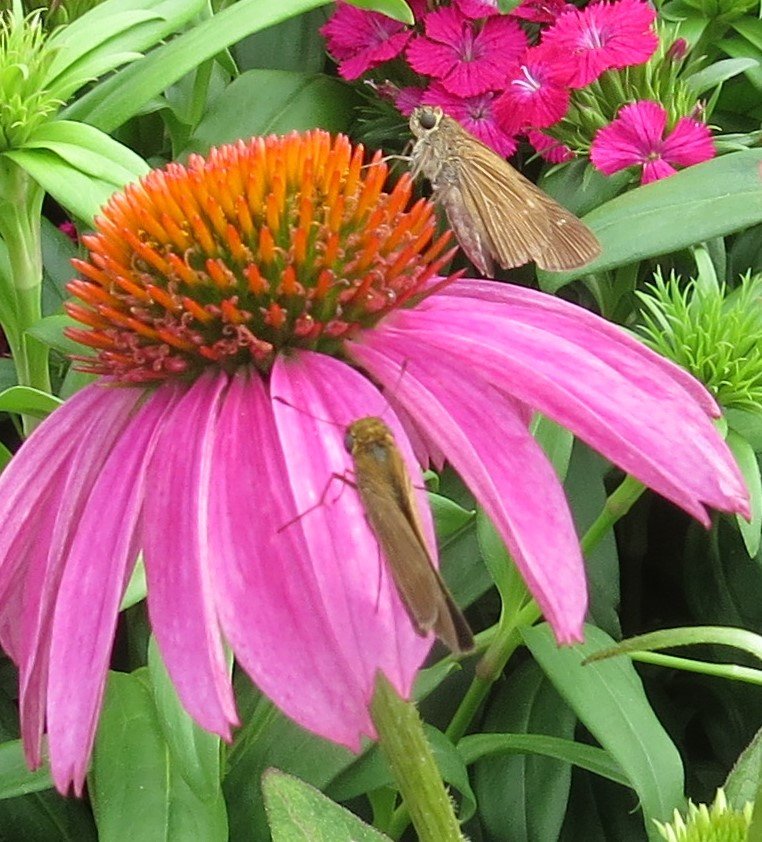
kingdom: Animalia
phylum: Arthropoda
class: Insecta
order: Lepidoptera
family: Hesperiidae
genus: Panoquina
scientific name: Panoquina ocola
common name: Ocola Skipper
